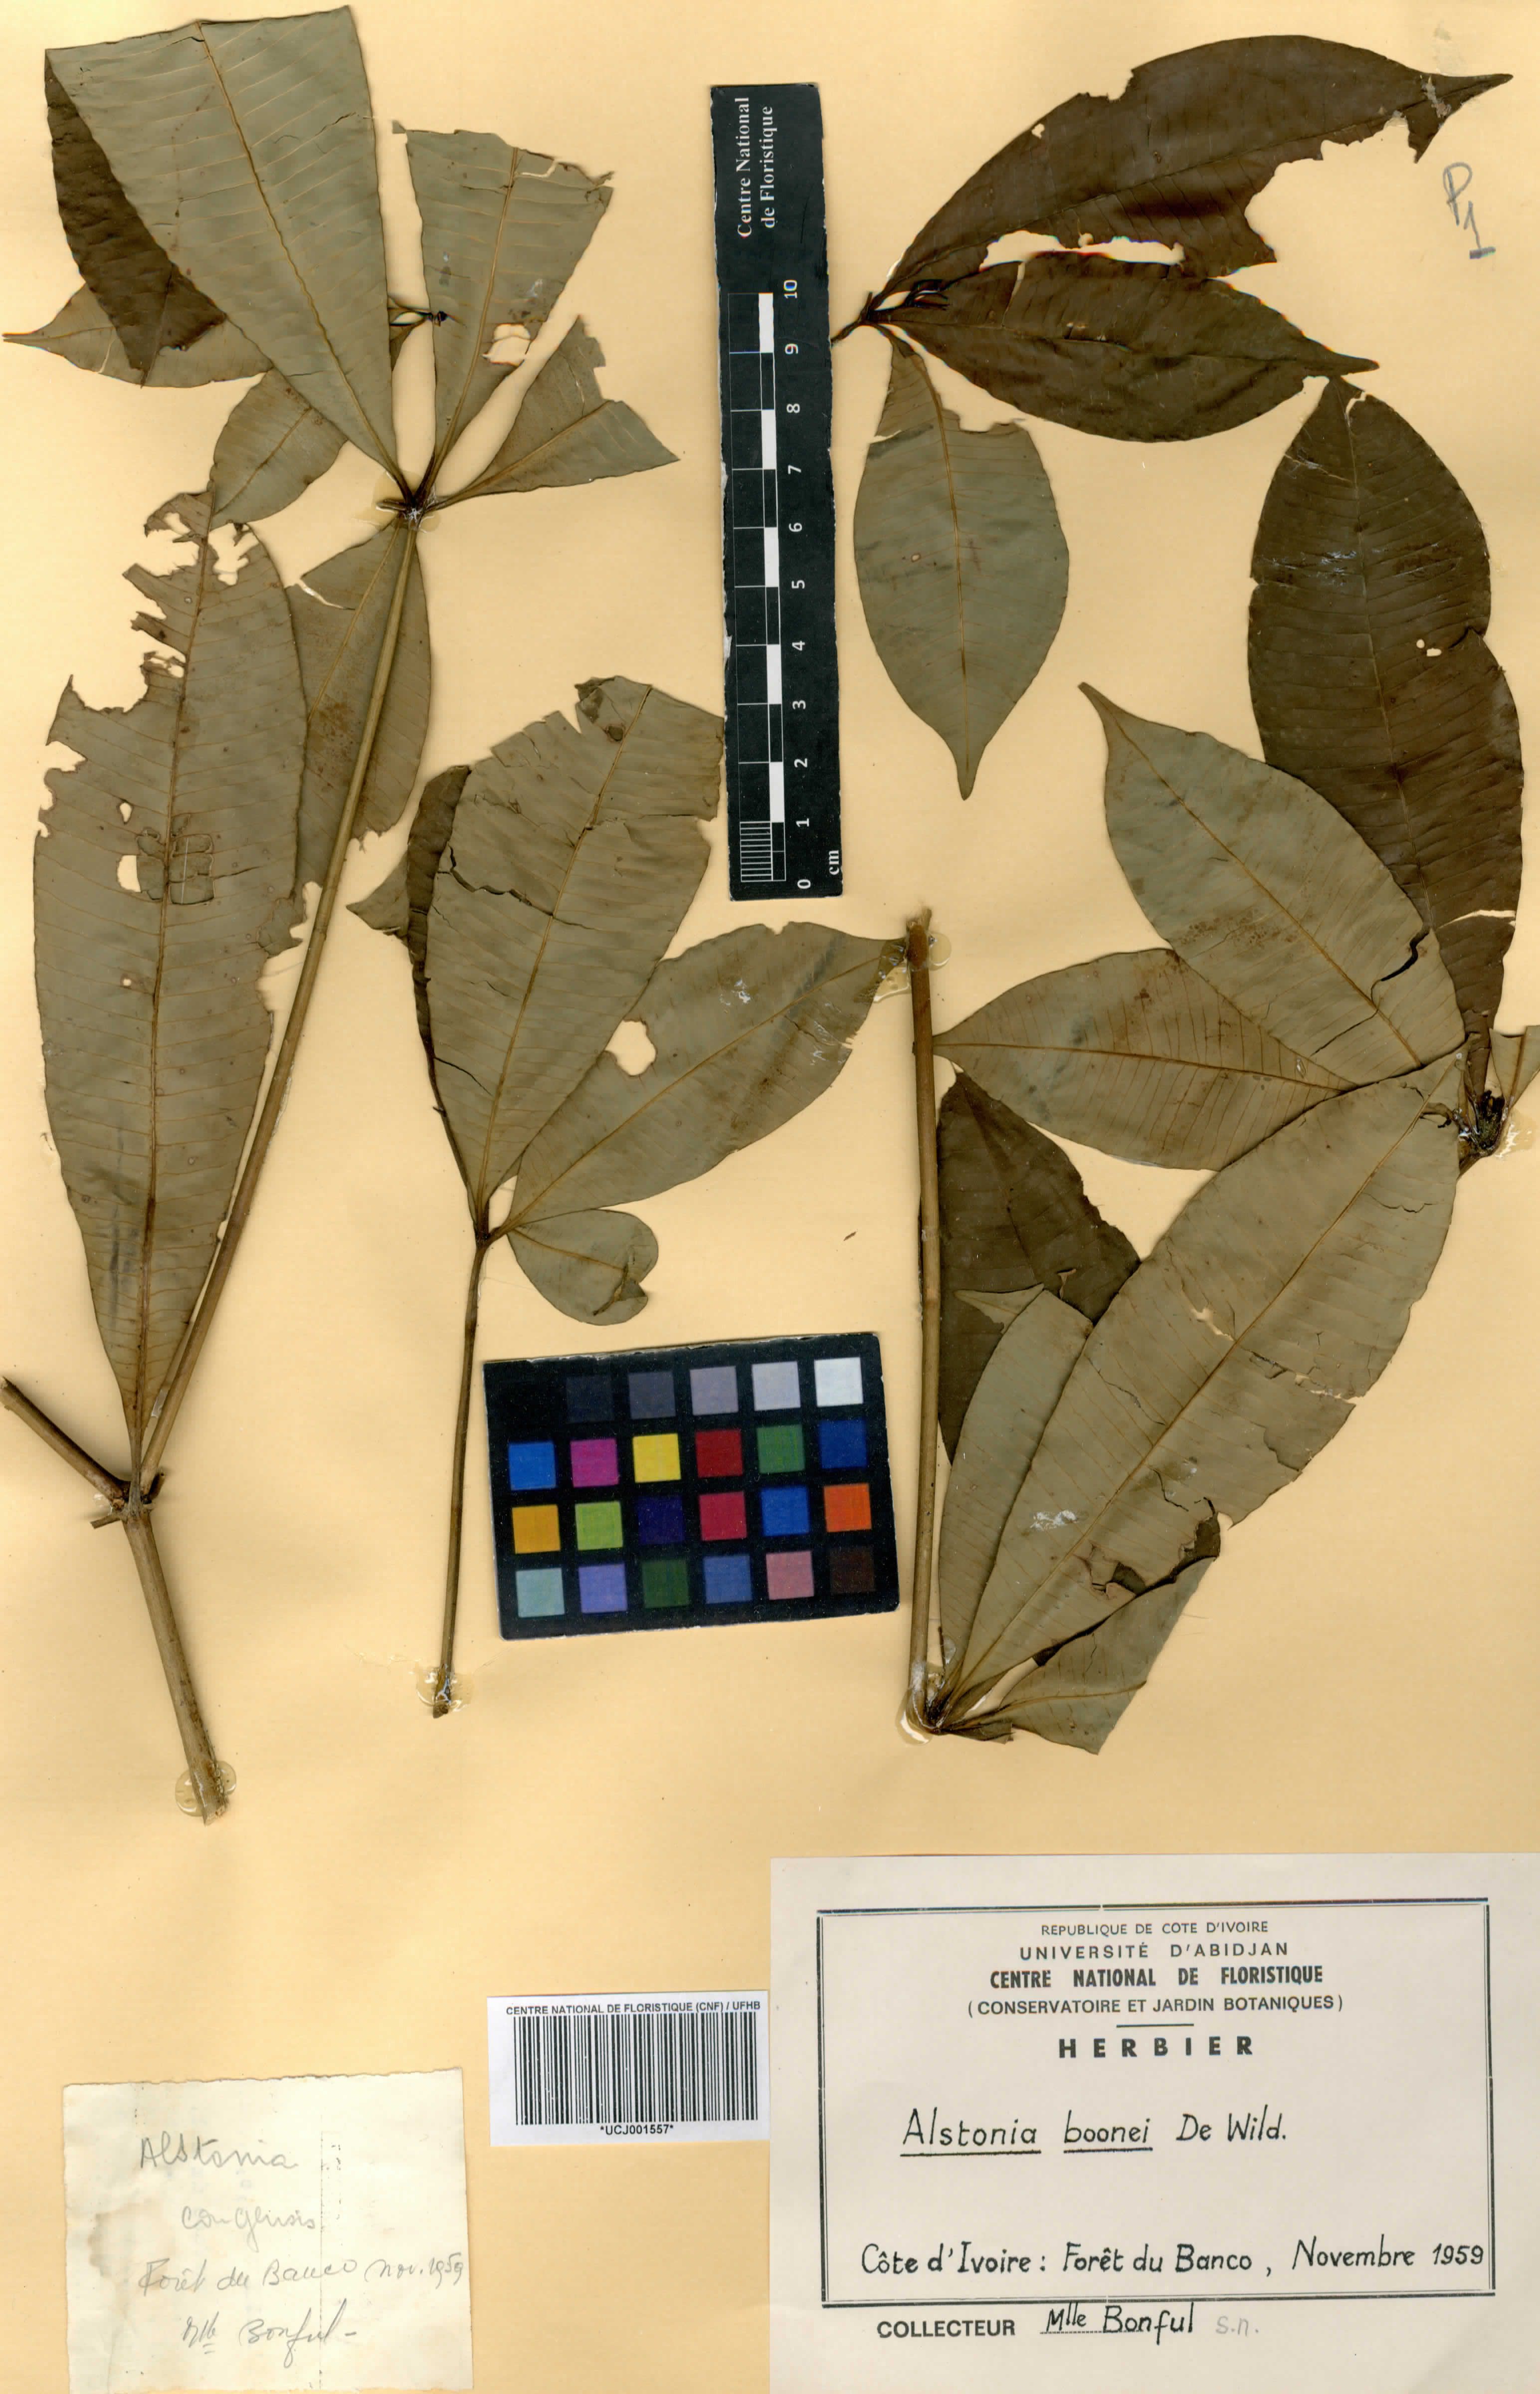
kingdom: Plantae
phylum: Tracheophyta
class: Magnoliopsida
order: Gentianales
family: Apocynaceae
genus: Alstonia
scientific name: Alstonia boonei
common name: Alstonia
